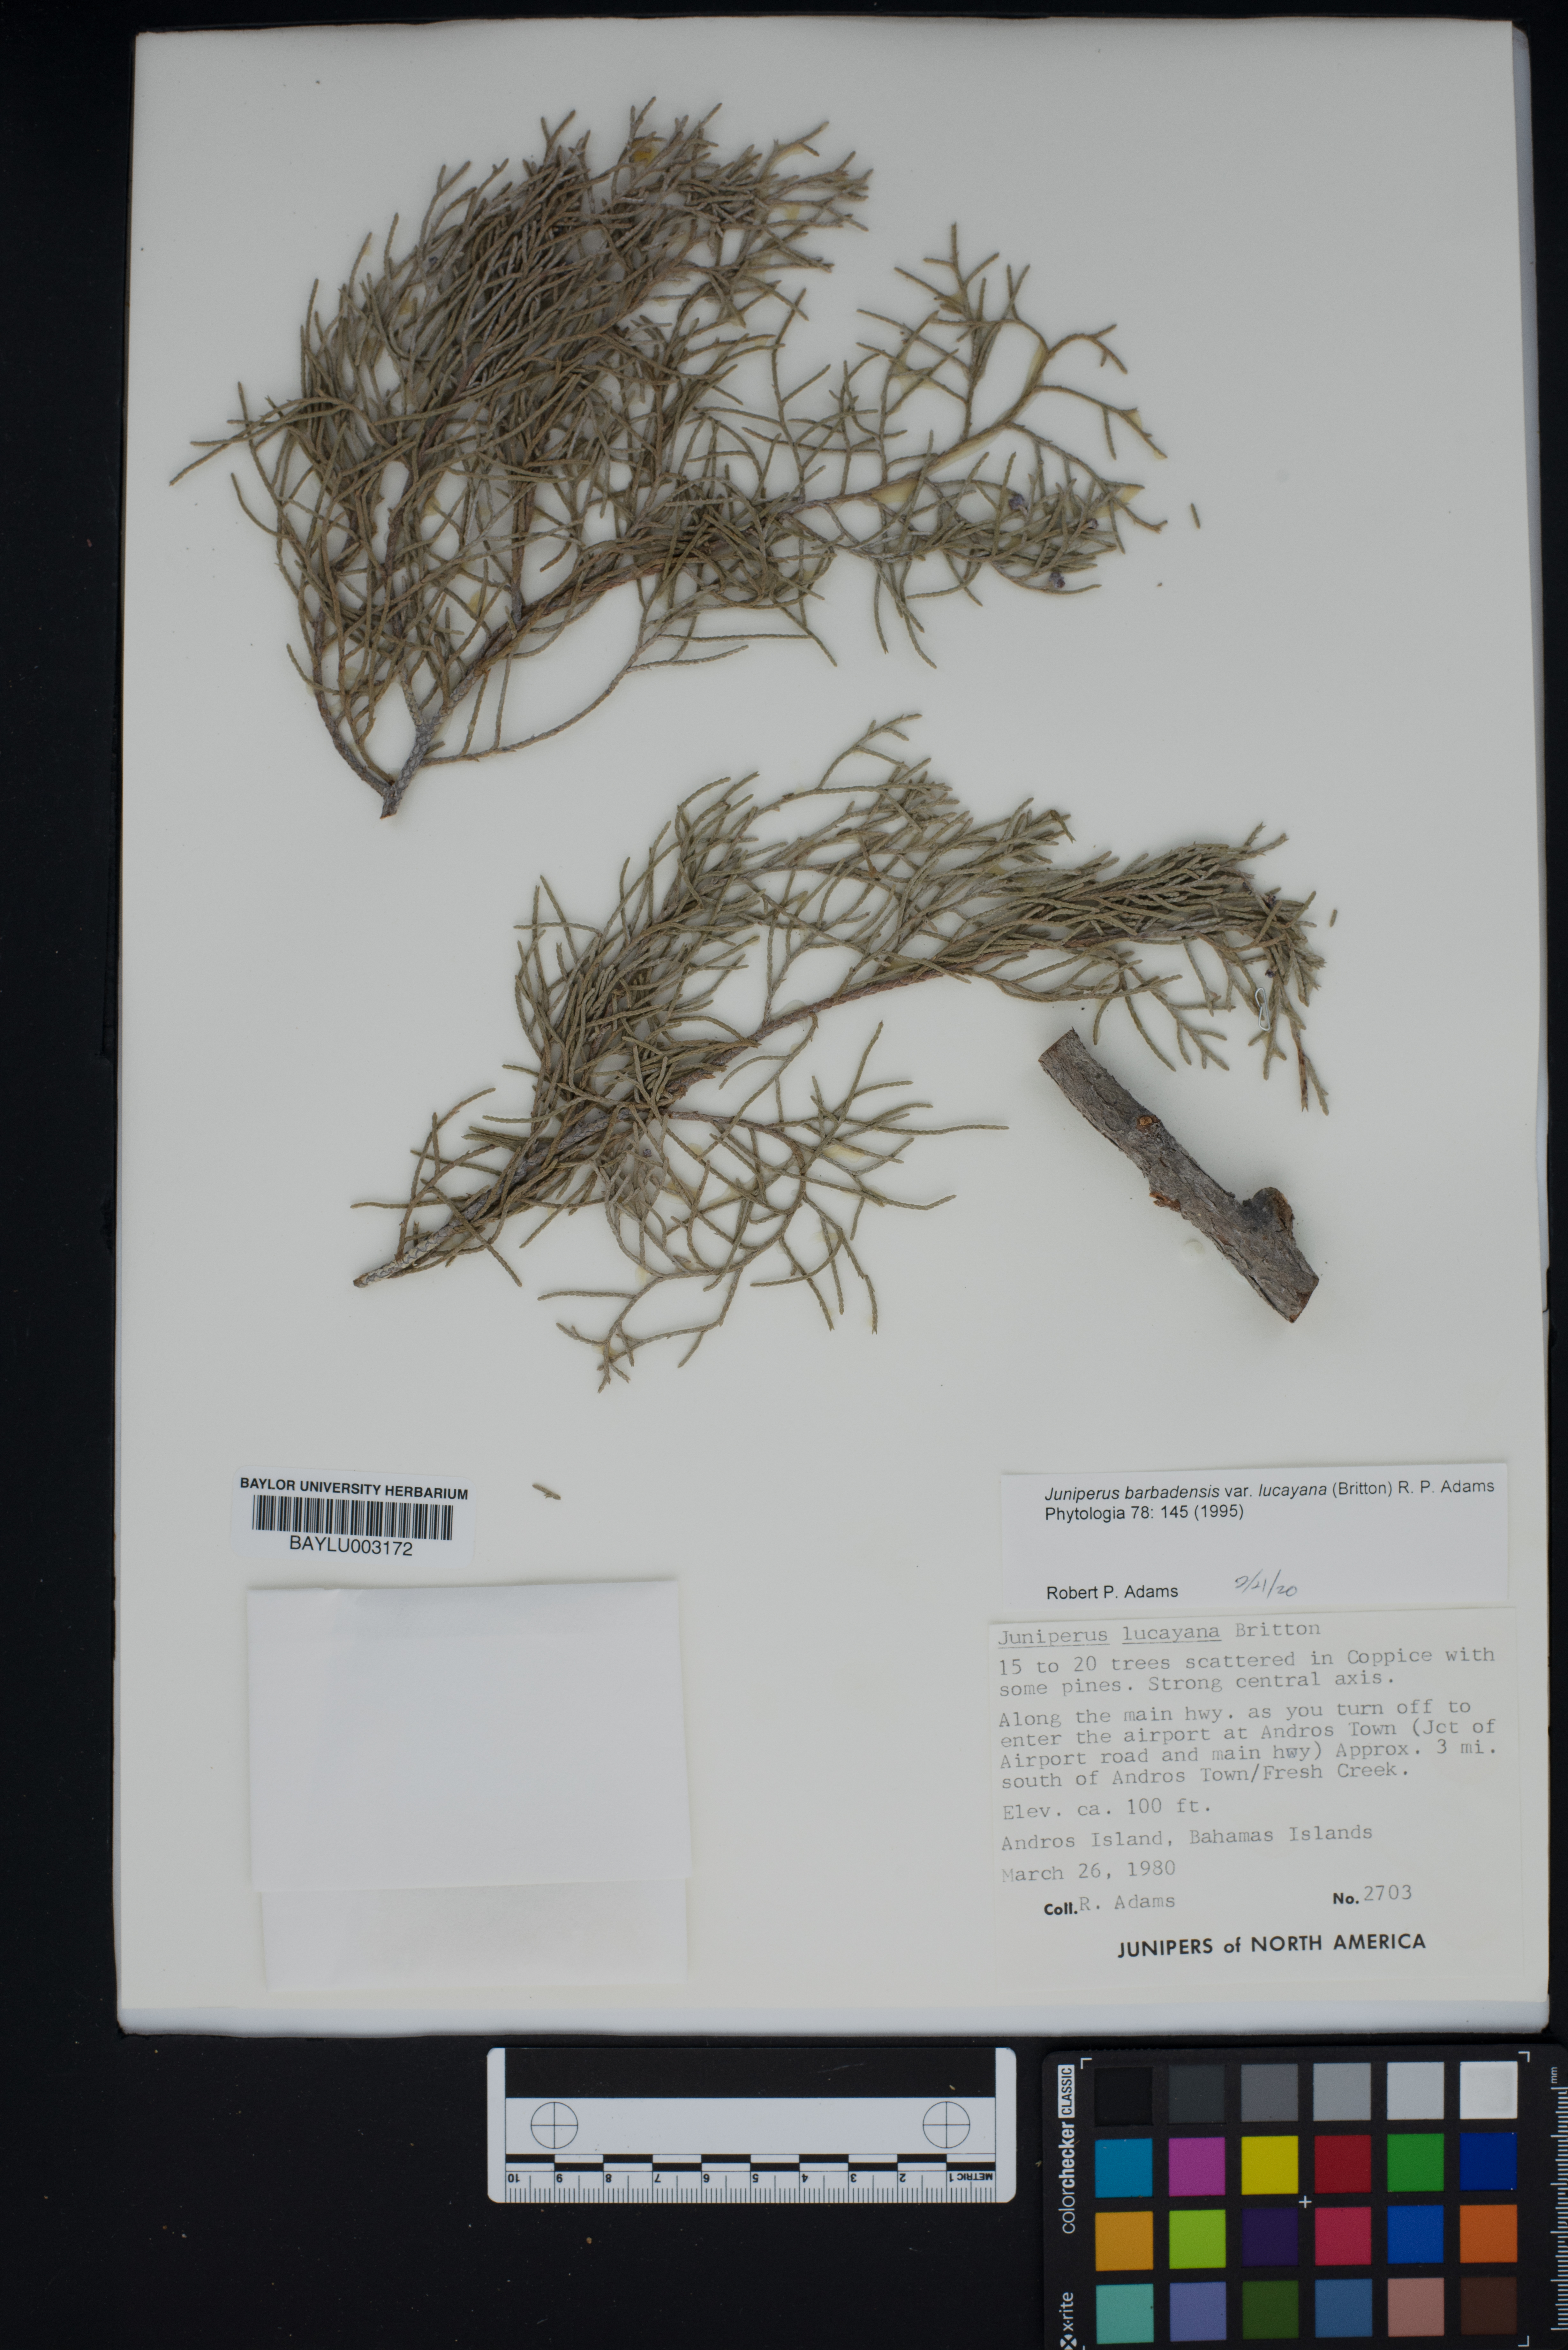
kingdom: Plantae
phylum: Tracheophyta
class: Pinopsida
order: Pinales
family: Cupressaceae
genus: Juniperus
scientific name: Juniperus barbadensis
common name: West indies juniper
